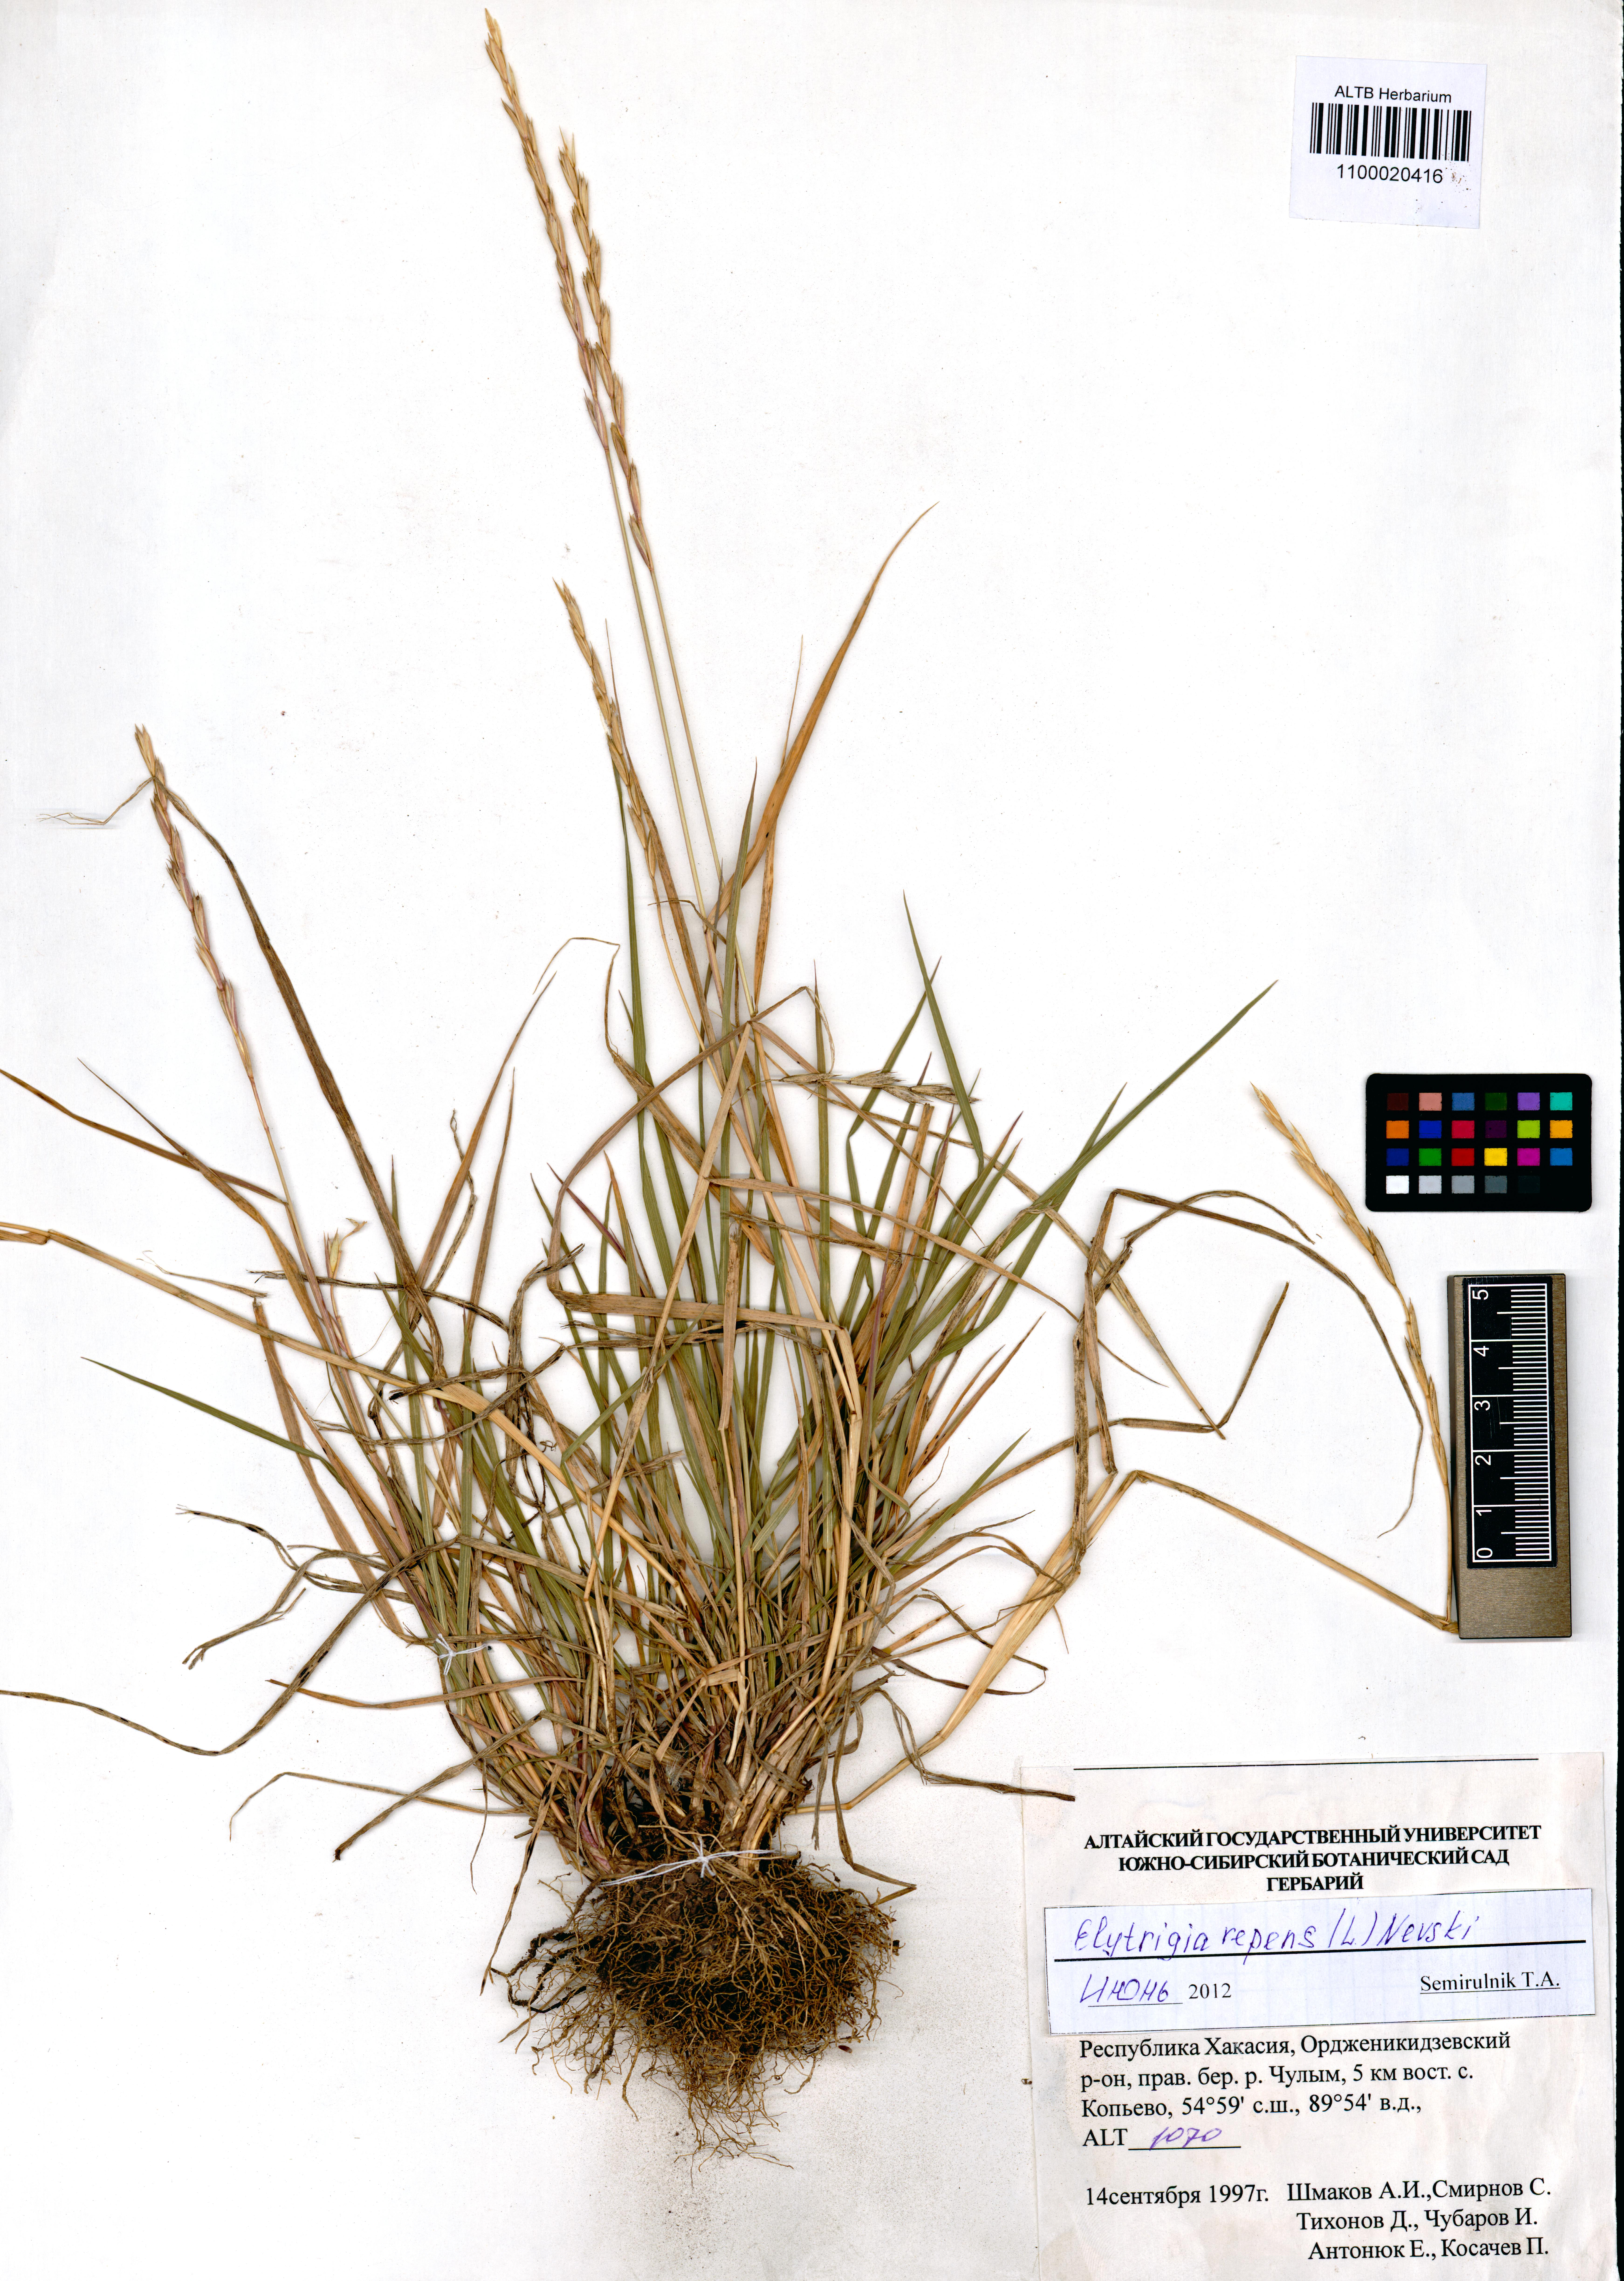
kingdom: Plantae
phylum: Tracheophyta
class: Liliopsida
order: Poales
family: Poaceae
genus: Elymus
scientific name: Elymus repens
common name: Quackgrass
